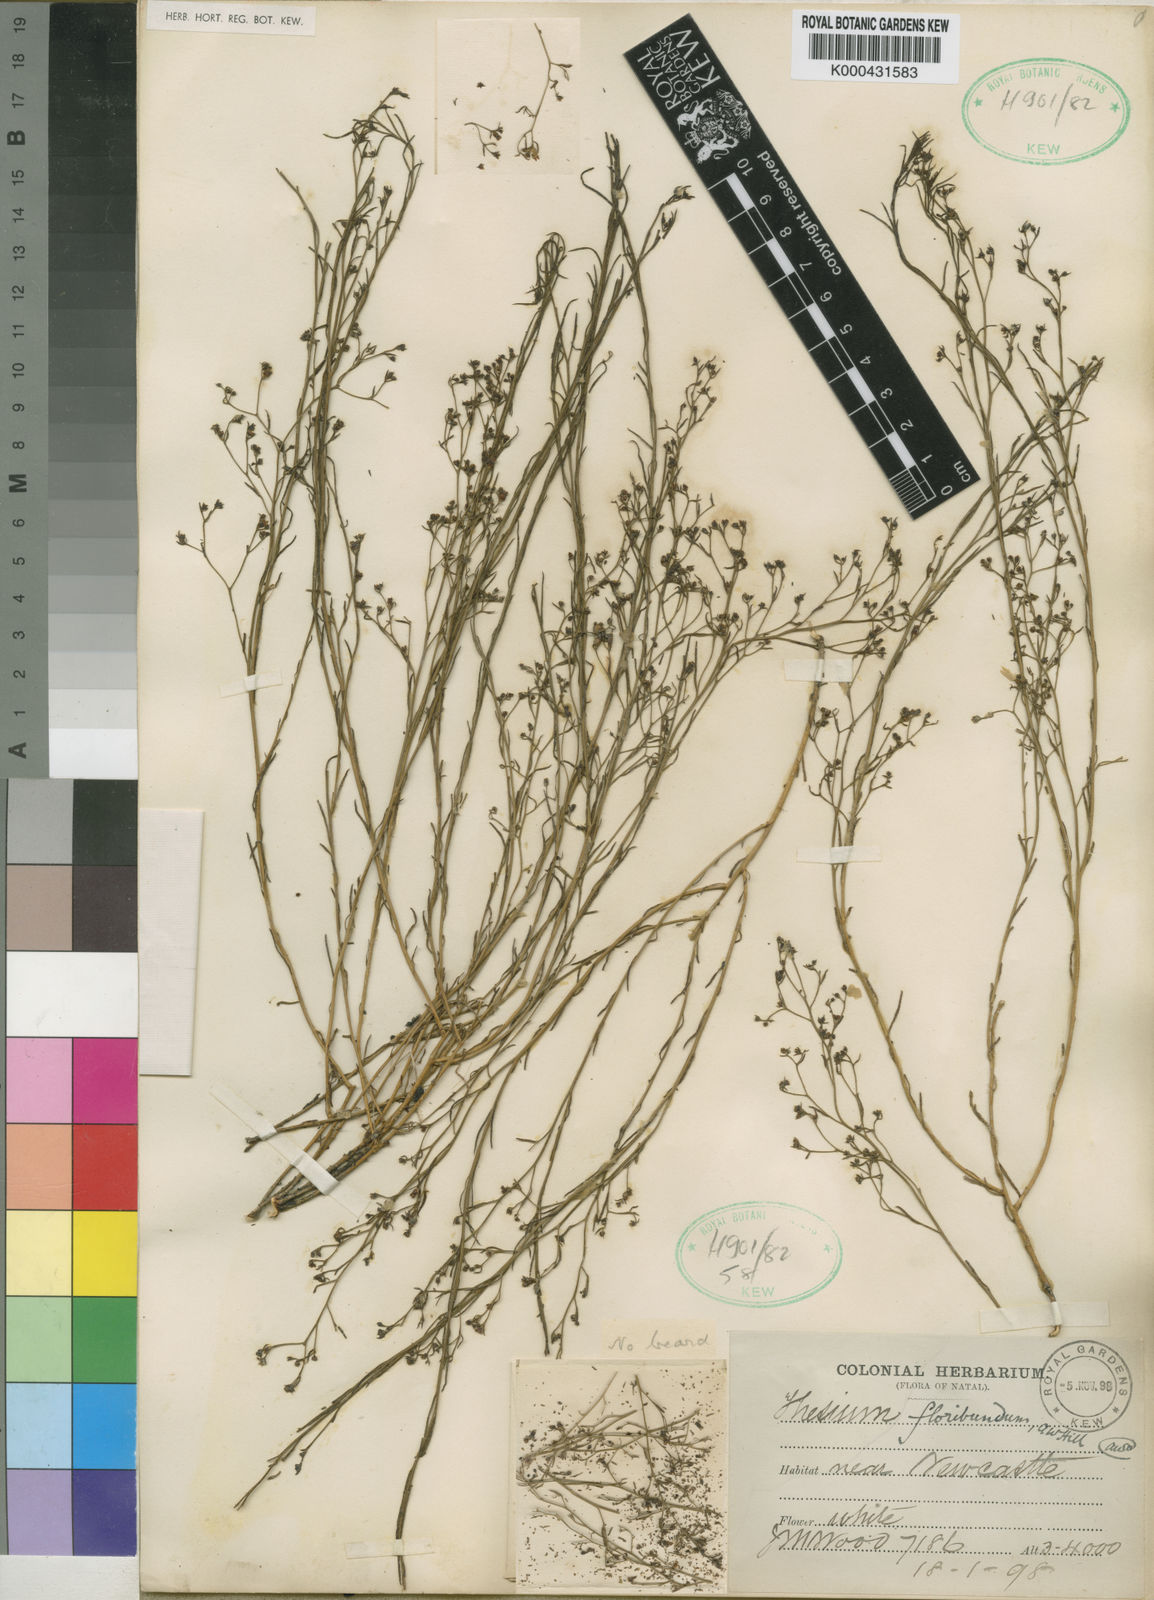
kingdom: Plantae
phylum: Tracheophyta
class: Magnoliopsida
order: Santalales
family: Thesiaceae
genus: Thesium
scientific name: Thesium pallidum
